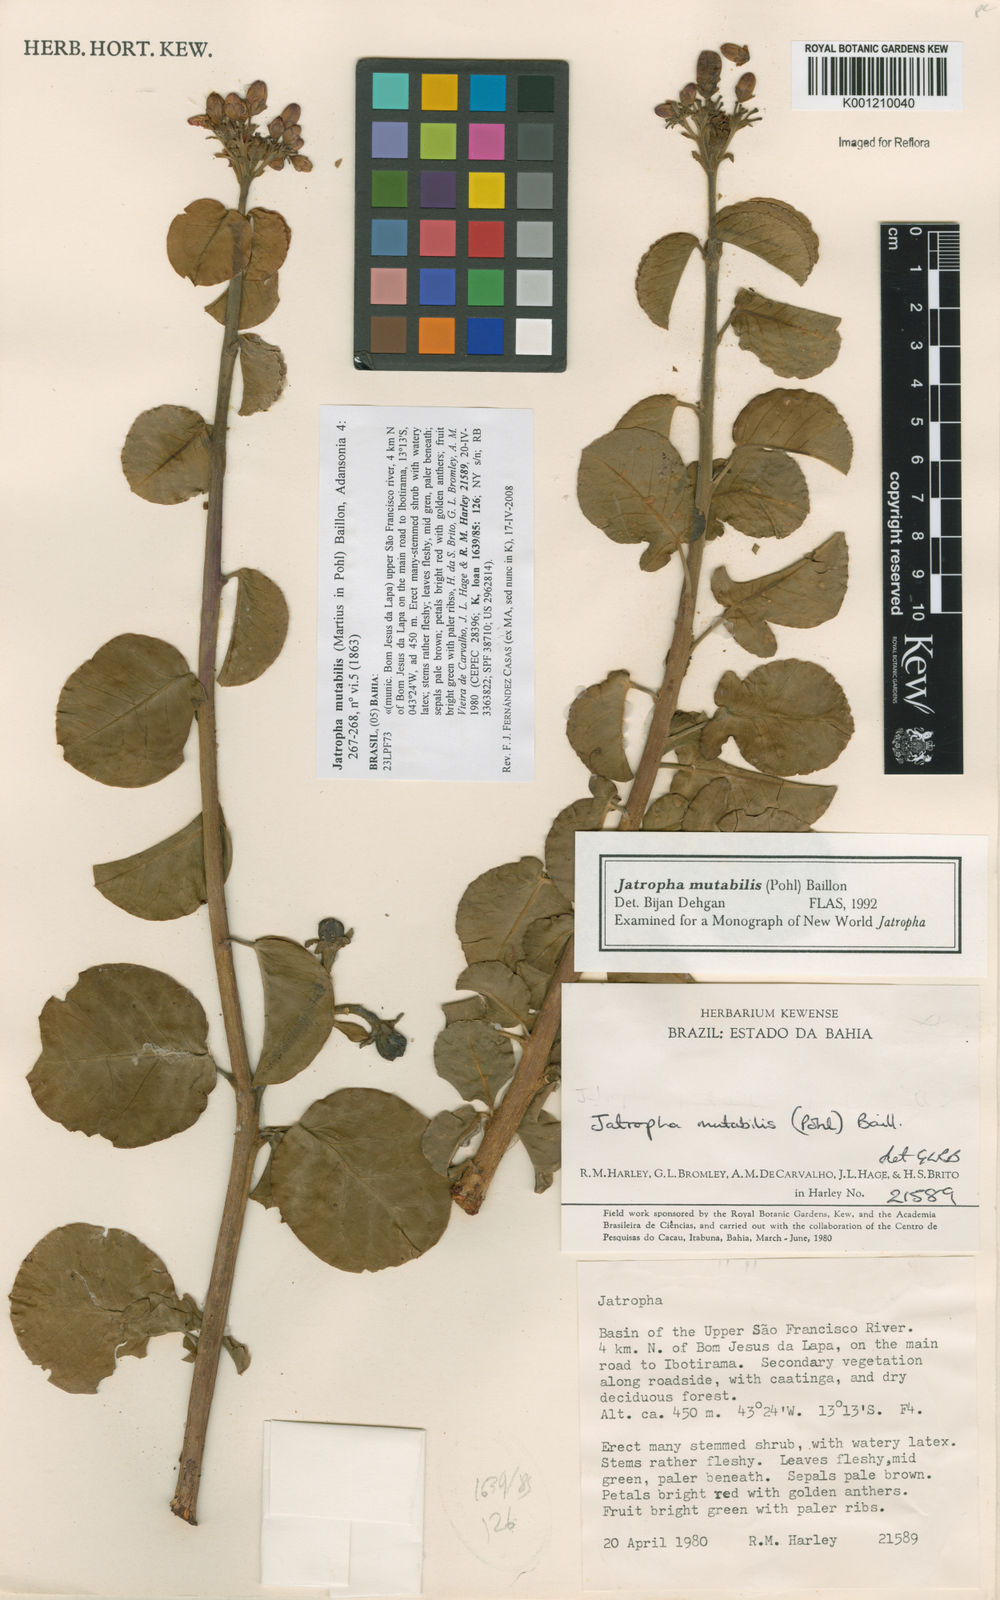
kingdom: Plantae
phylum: Tracheophyta
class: Magnoliopsida
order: Malpighiales
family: Euphorbiaceae
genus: Jatropha
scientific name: Jatropha mutabilis
